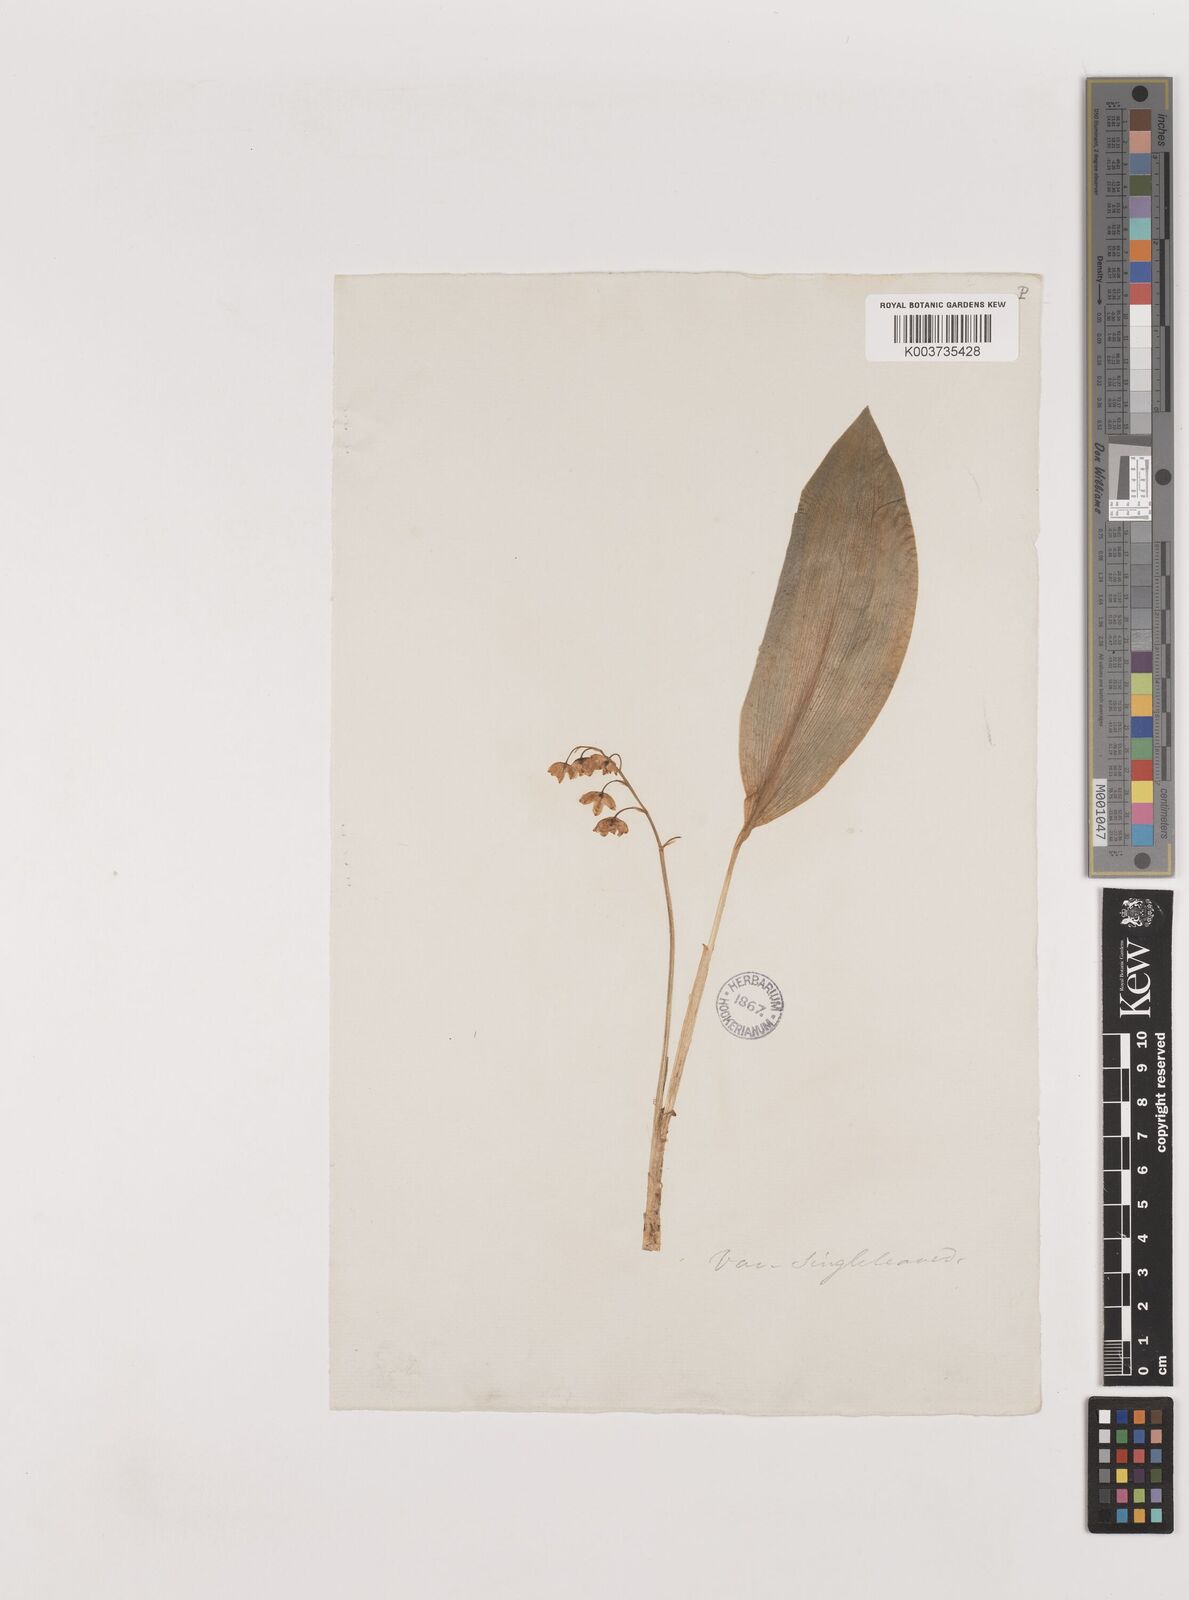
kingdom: Plantae
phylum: Tracheophyta
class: Liliopsida
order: Asparagales
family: Asparagaceae
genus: Convallaria
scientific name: Convallaria majalis
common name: Lily-of-the-valley
